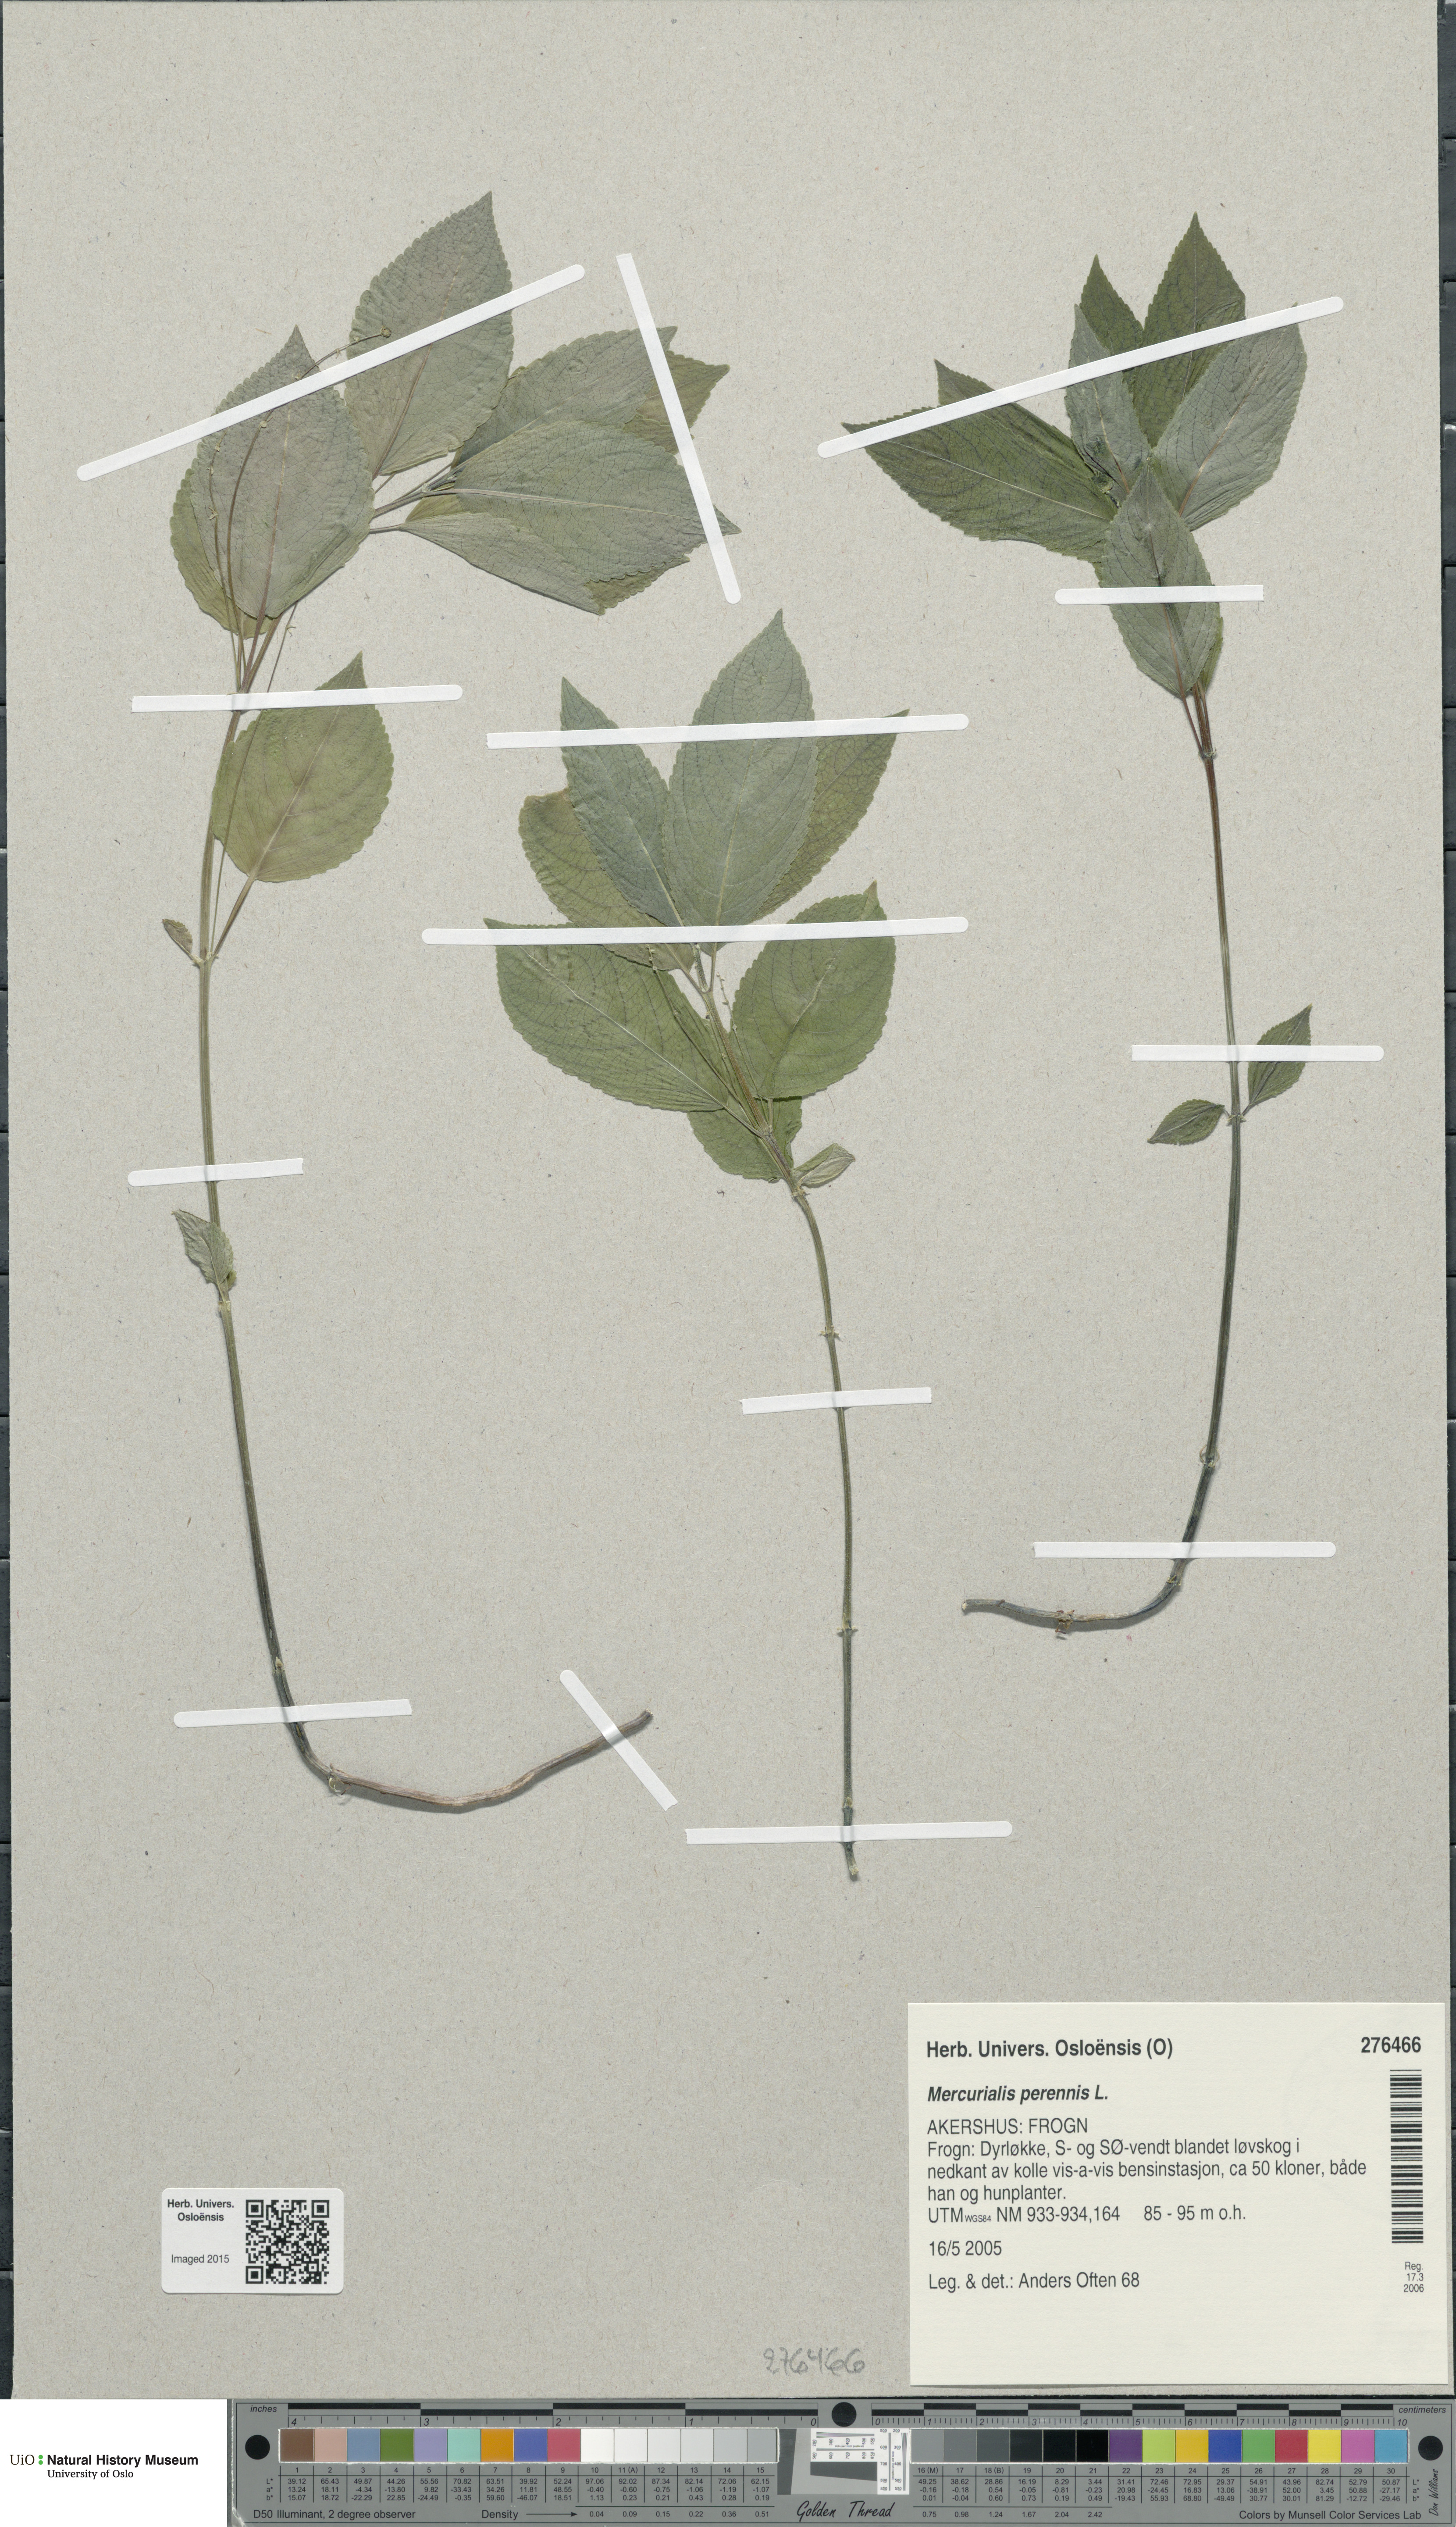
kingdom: Plantae
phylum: Tracheophyta
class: Magnoliopsida
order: Malpighiales
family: Euphorbiaceae
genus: Mercurialis
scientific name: Mercurialis perennis
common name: Dog mercury
